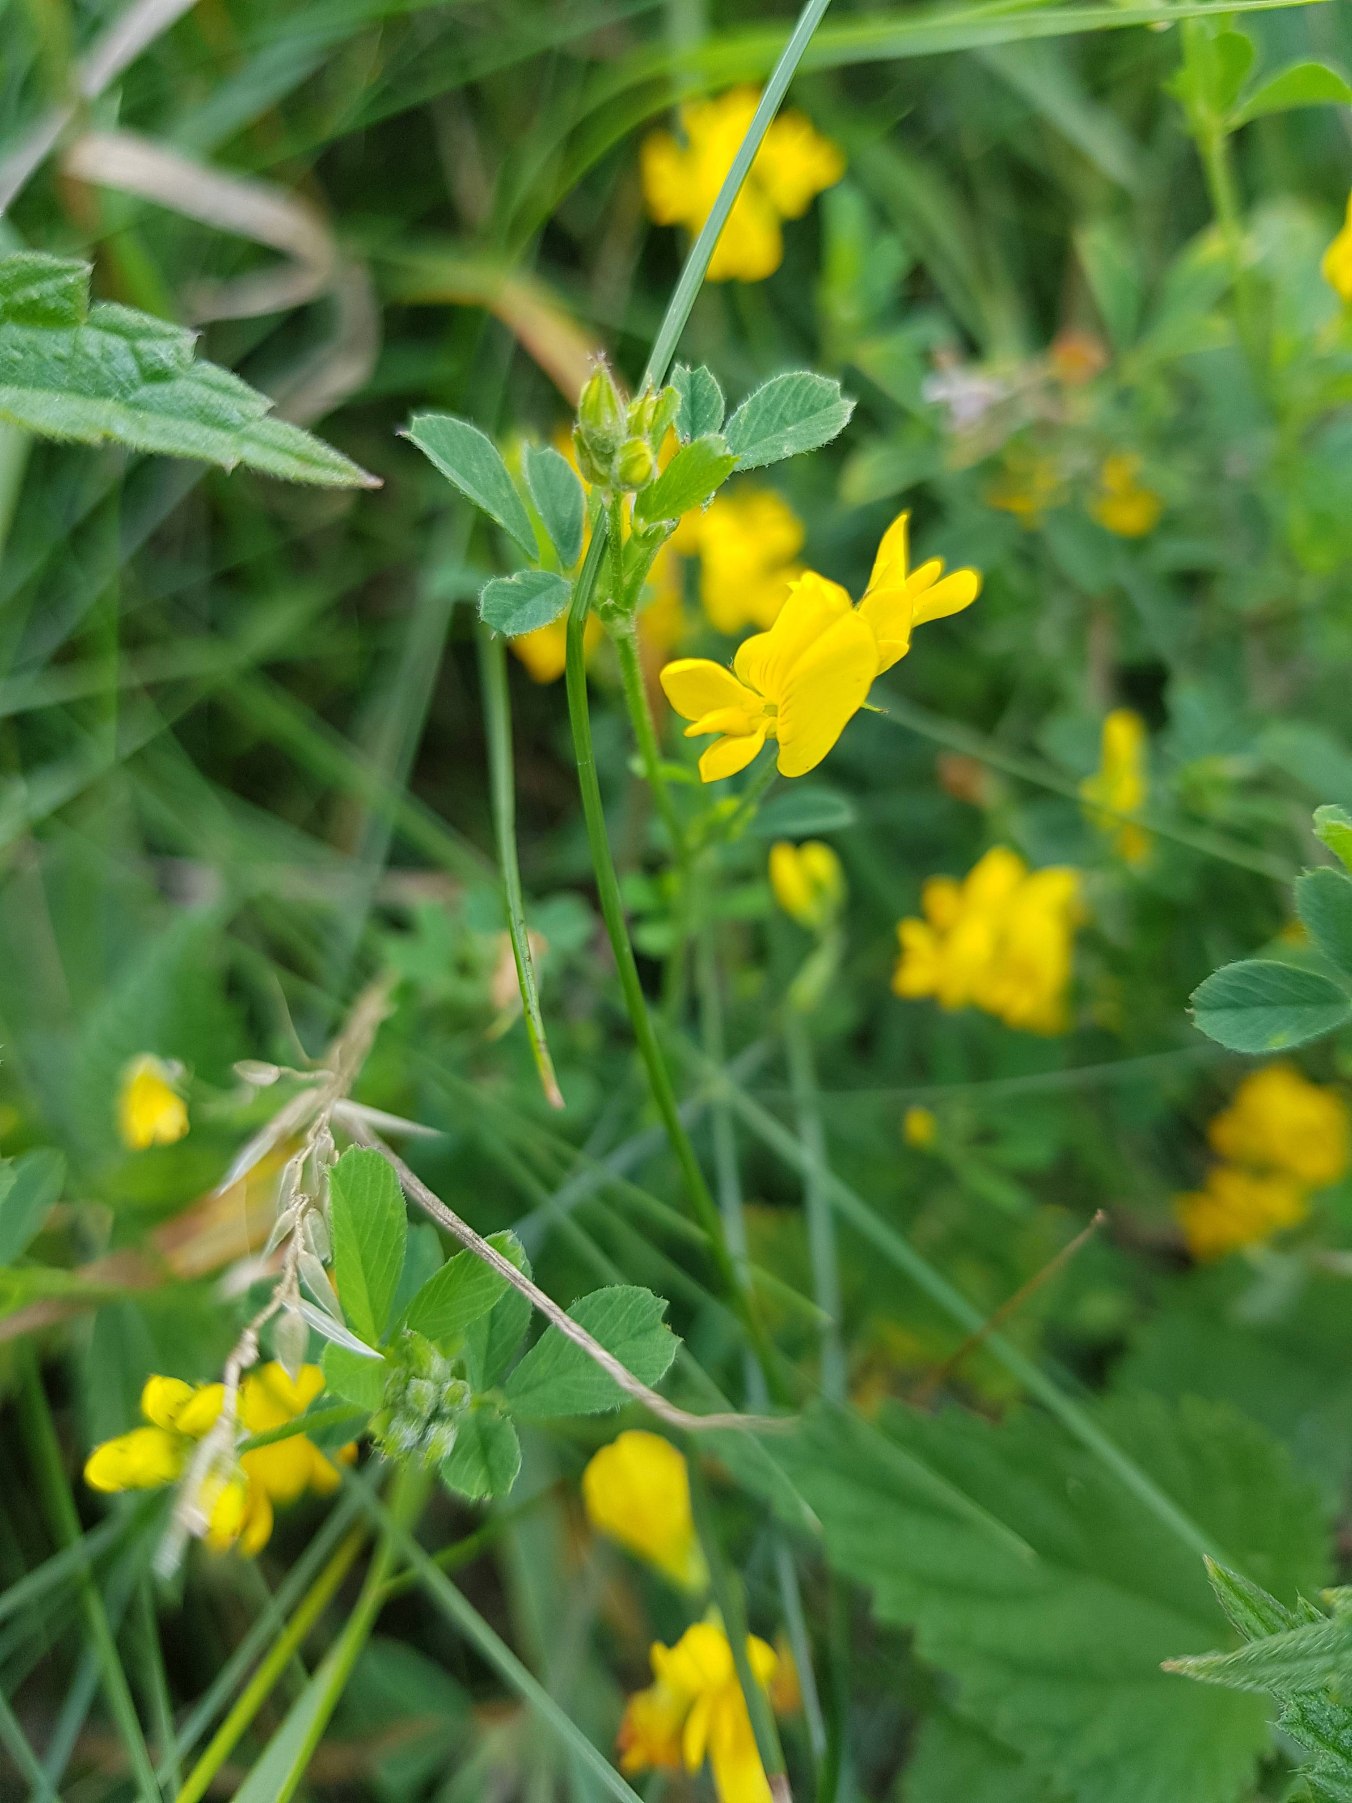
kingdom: Plantae
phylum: Tracheophyta
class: Magnoliopsida
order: Fabales
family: Fabaceae
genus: Medicago
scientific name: Medicago falcata
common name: Segl-sneglebælg
